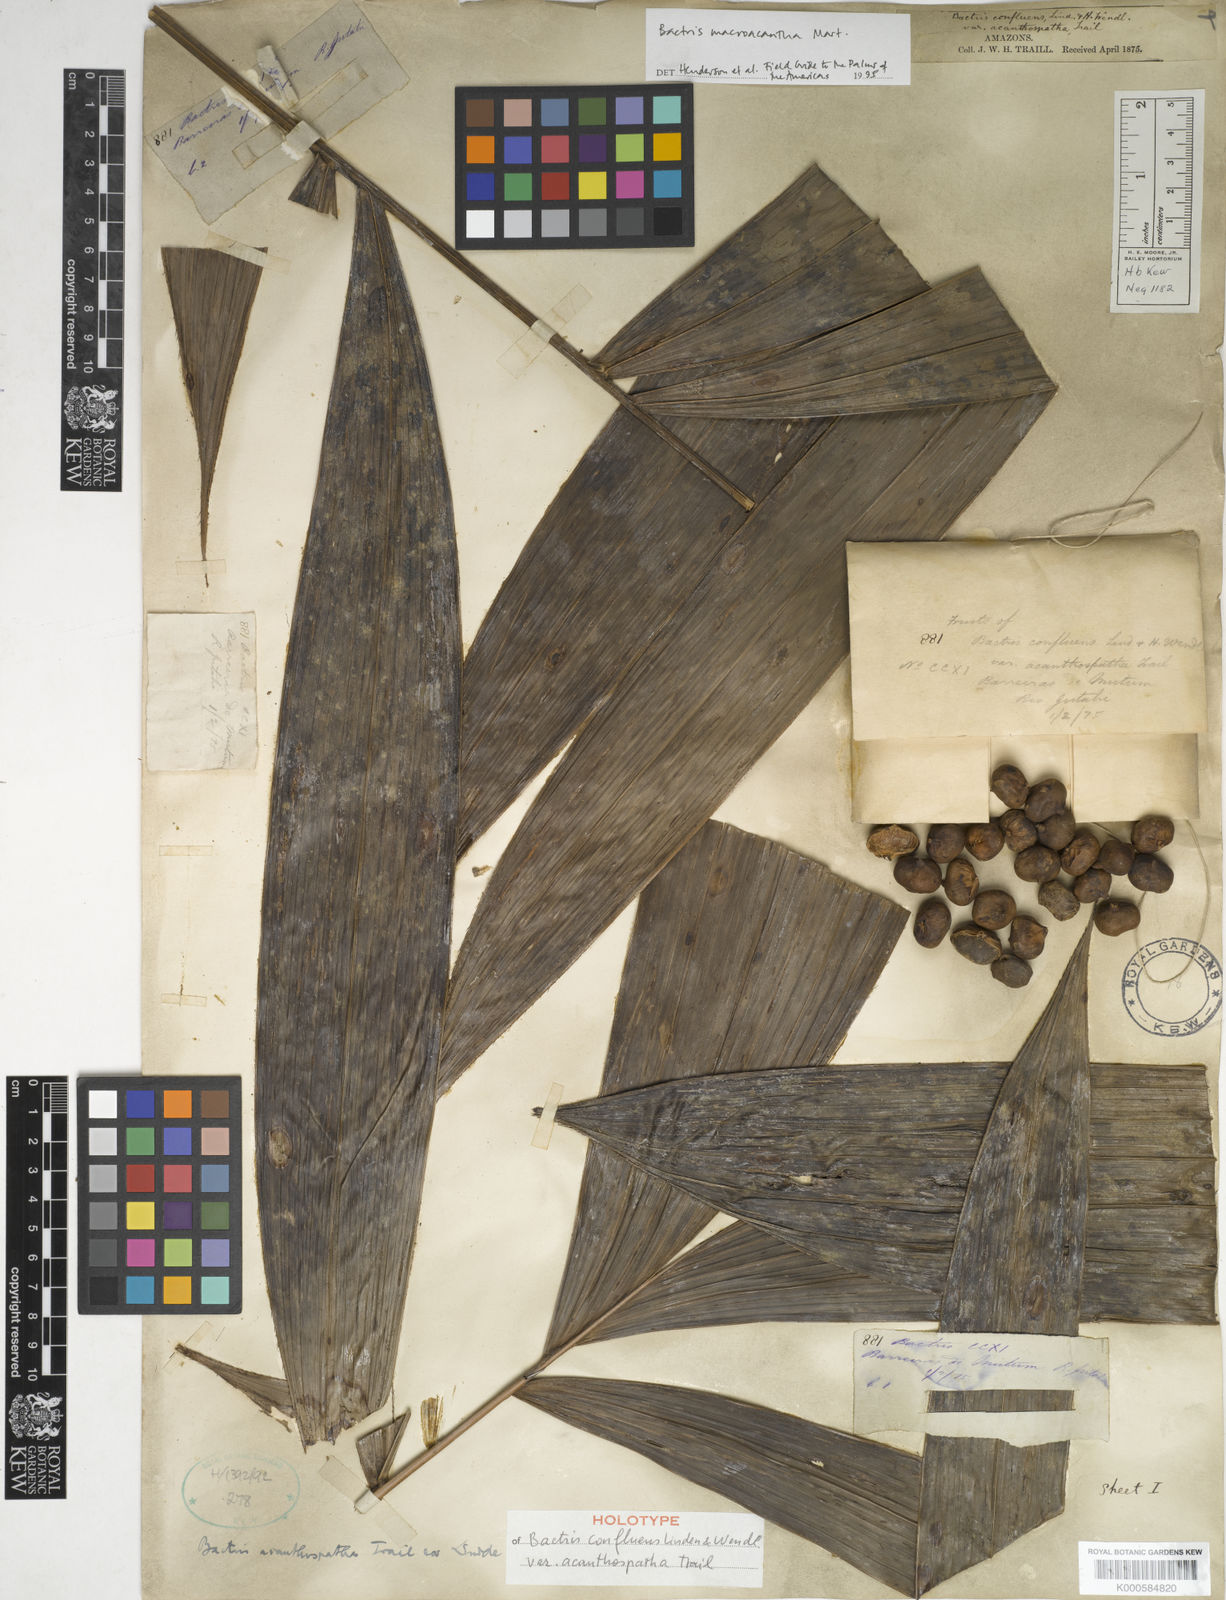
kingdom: Plantae
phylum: Tracheophyta
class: Liliopsida
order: Arecales
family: Arecaceae
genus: Bactris
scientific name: Bactris macroacantha
